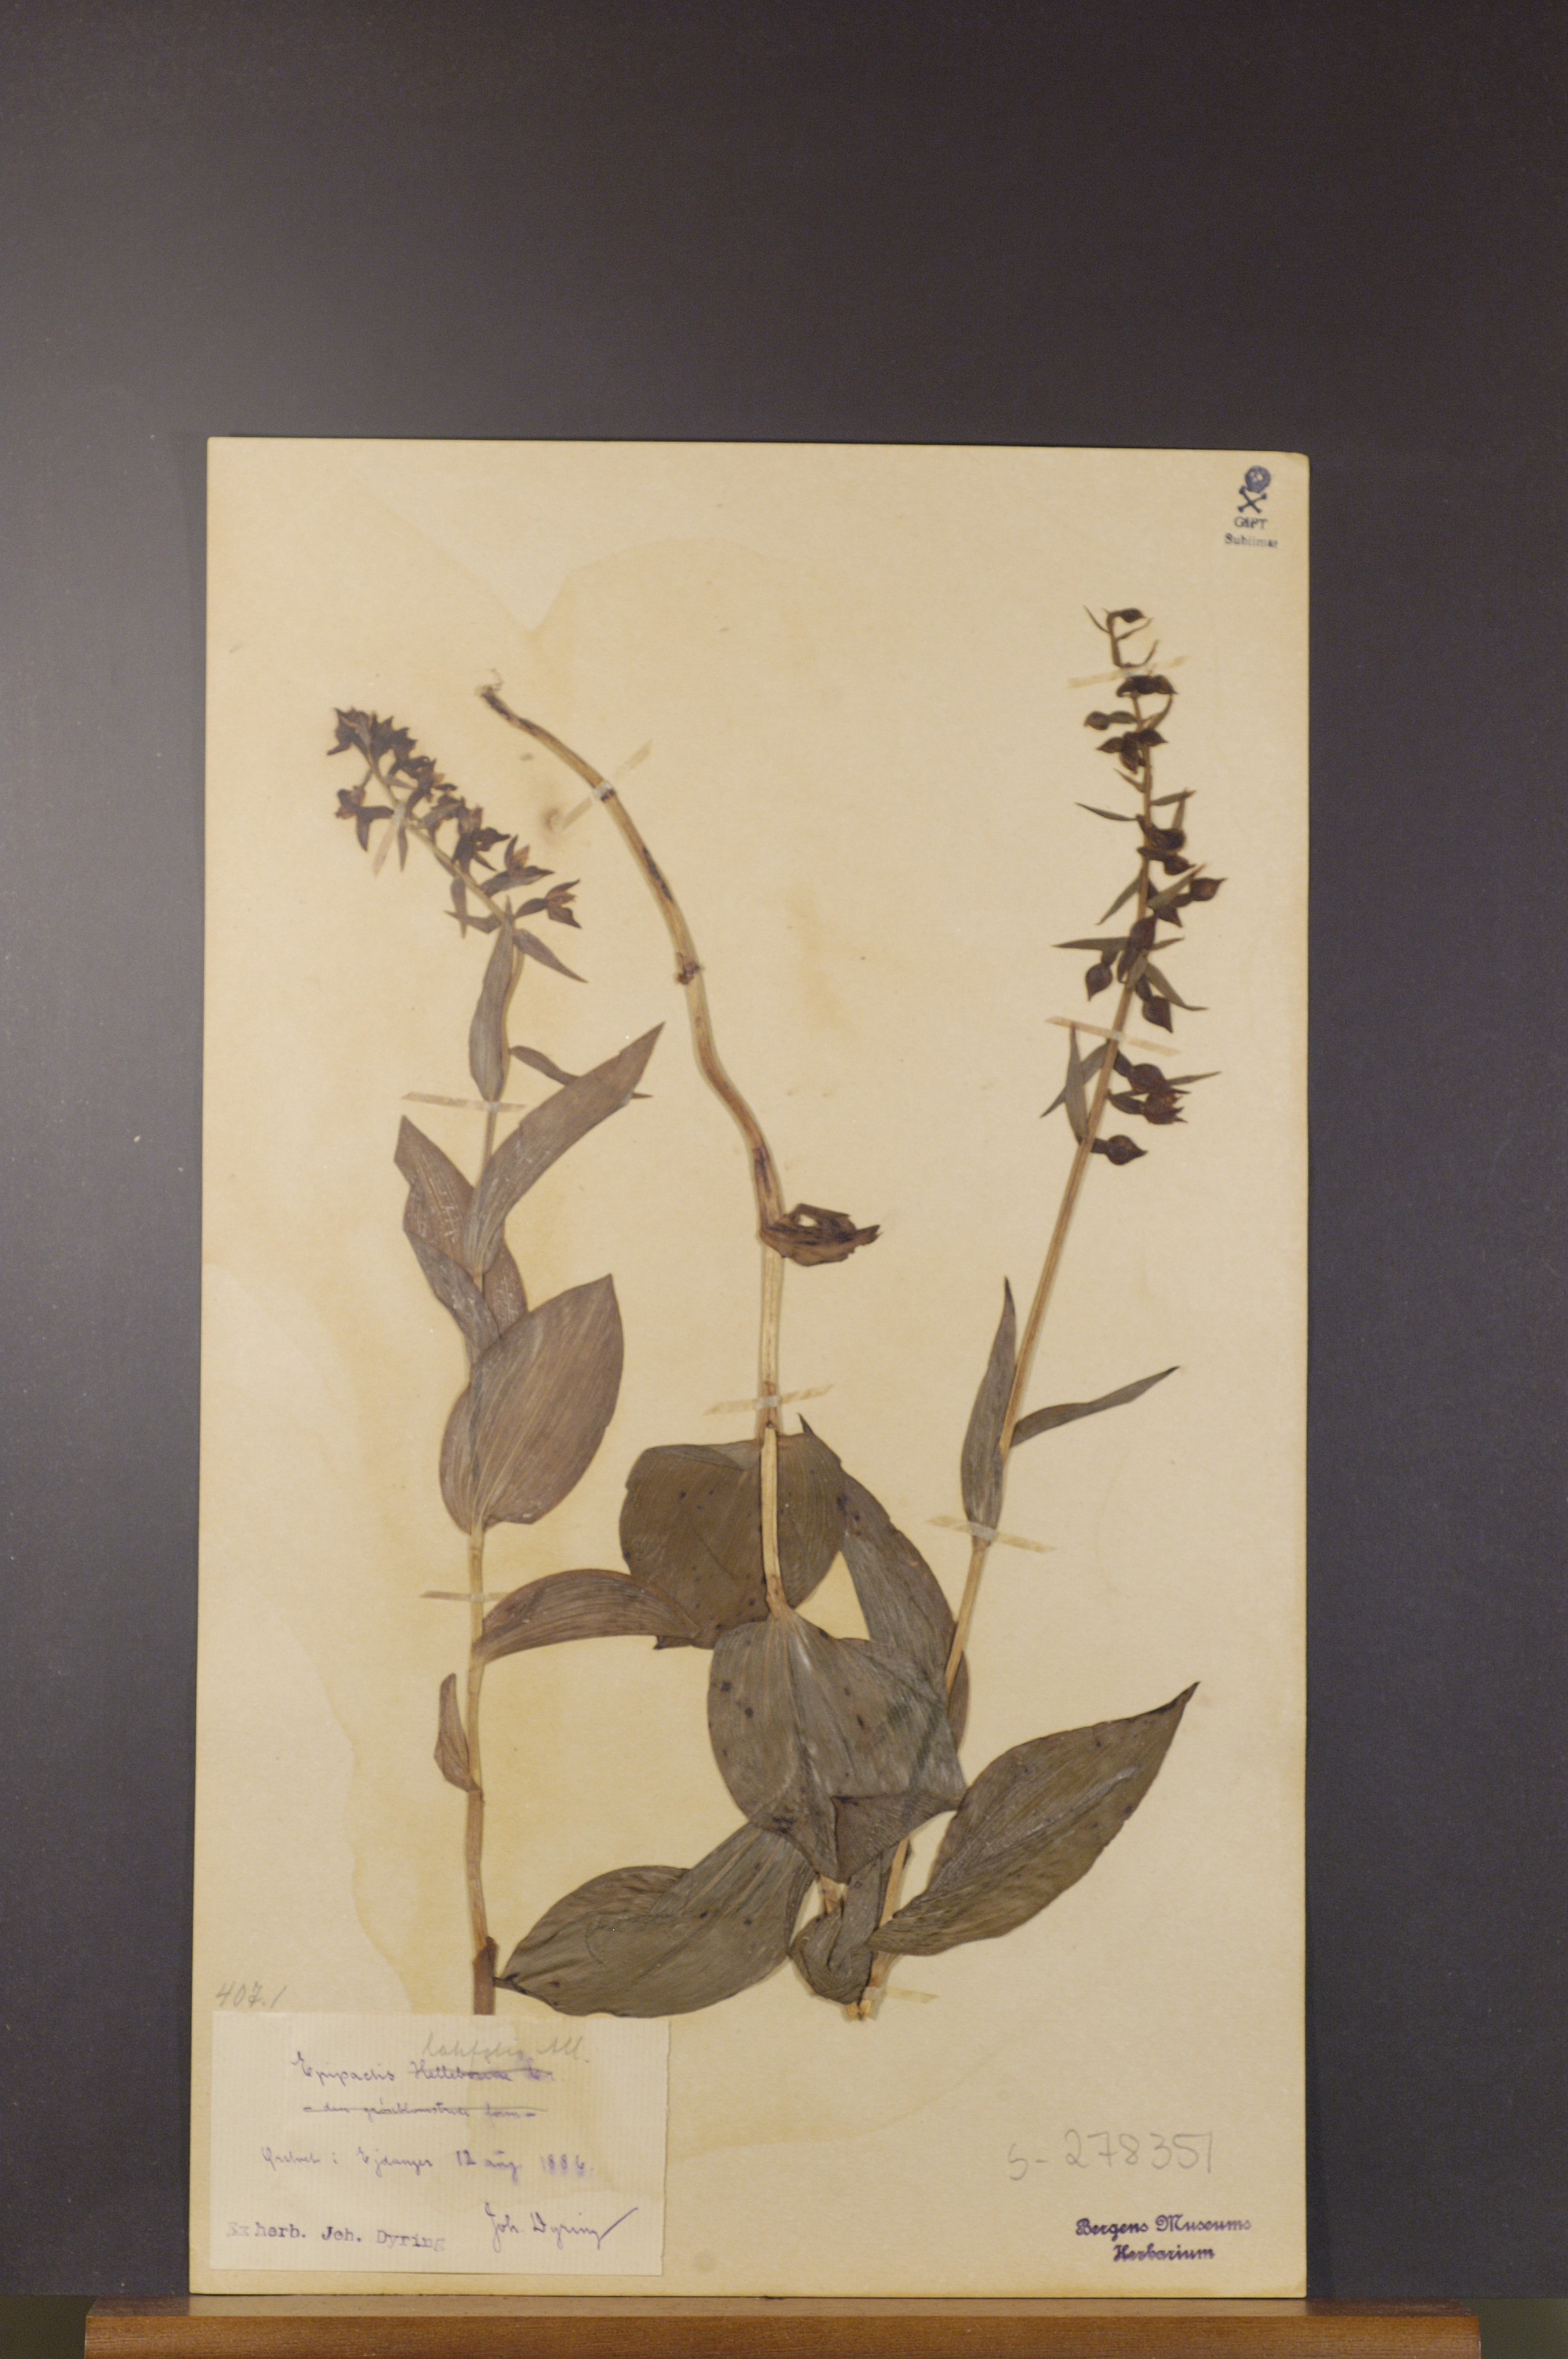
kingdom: Plantae
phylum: Tracheophyta
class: Liliopsida
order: Asparagales
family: Orchidaceae
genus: Epipactis
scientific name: Epipactis helleborine
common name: Broad-leaved helleborine
